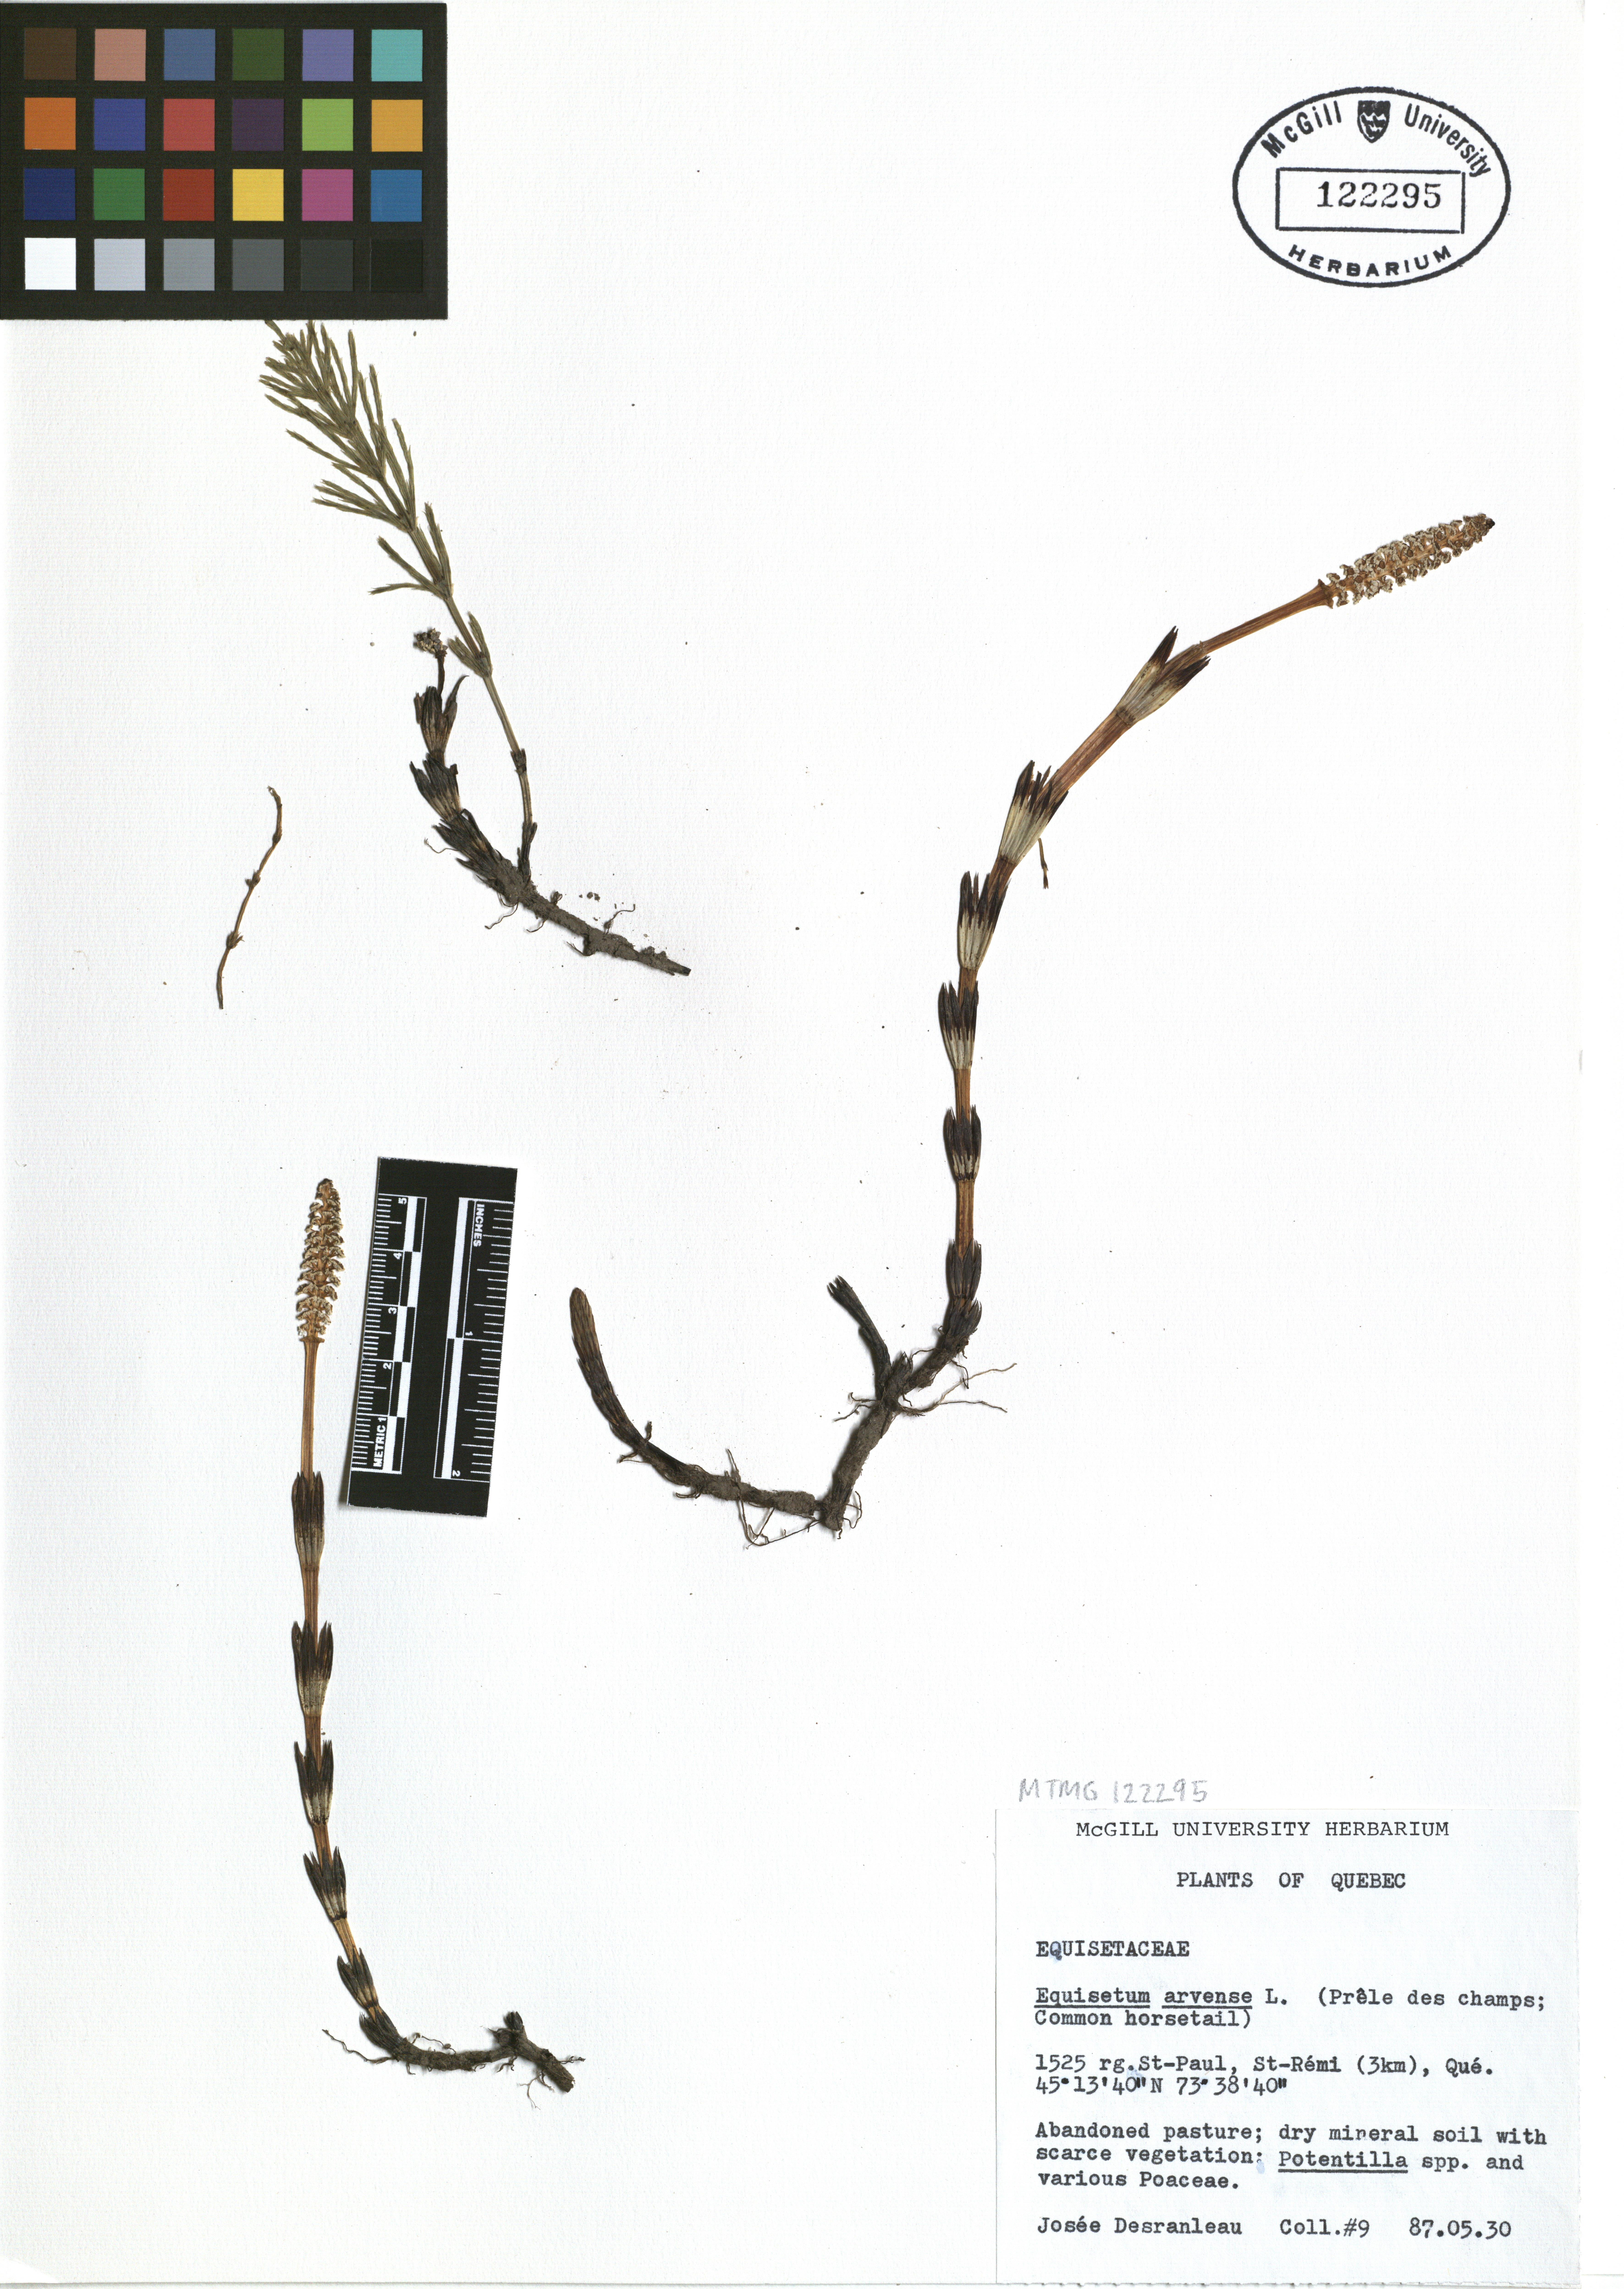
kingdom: Plantae
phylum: Tracheophyta
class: Polypodiopsida
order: Equisetales
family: Equisetaceae
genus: Equisetum
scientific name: Equisetum arvense
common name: Field horsetail
